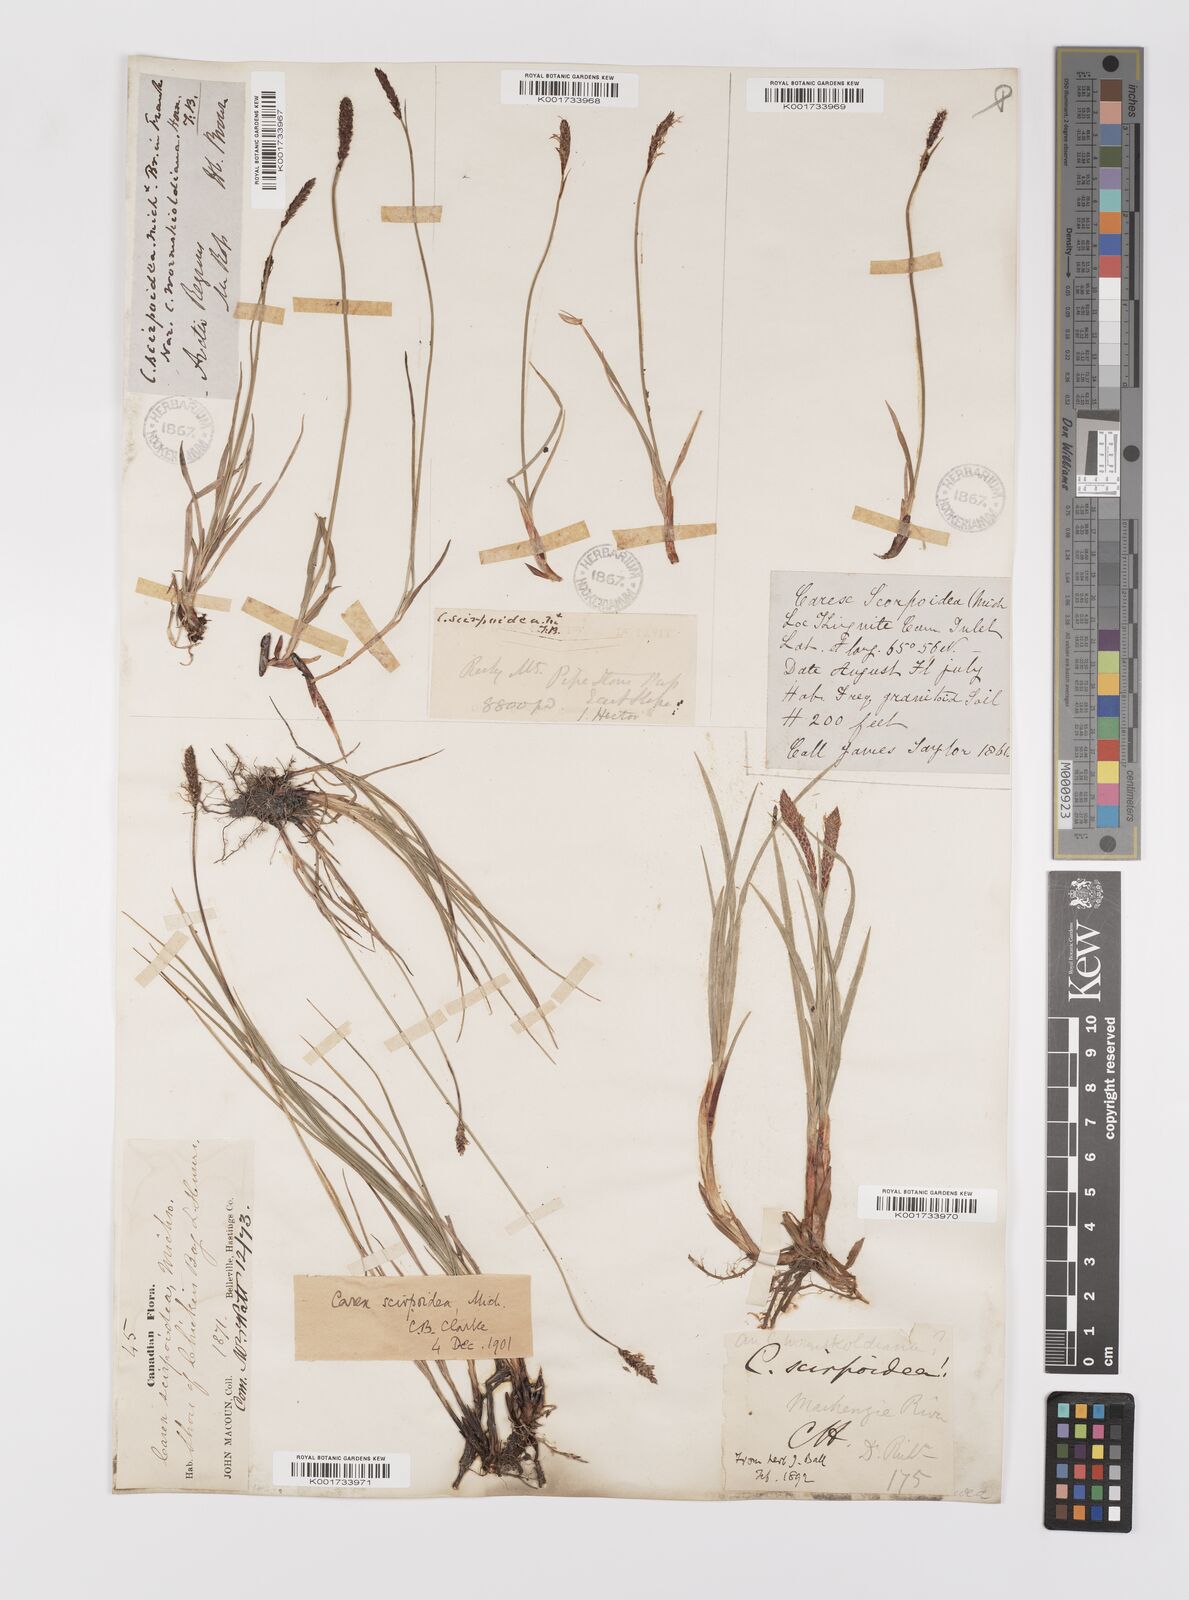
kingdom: Plantae
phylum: Tracheophyta
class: Liliopsida
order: Poales
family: Cyperaceae
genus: Carex
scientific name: Carex scirpoidea
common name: Canada single-spike sedge
